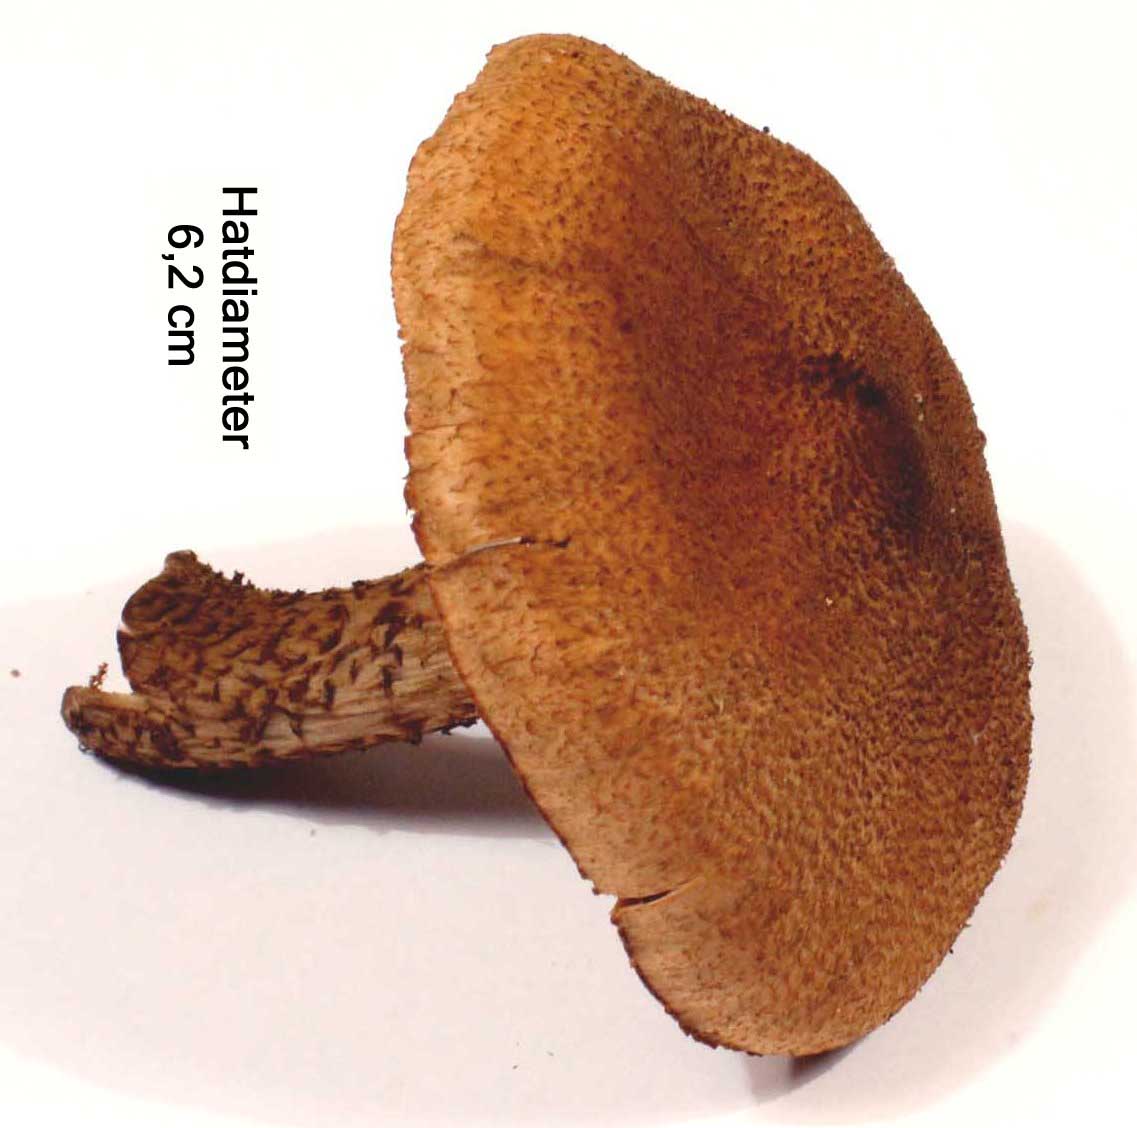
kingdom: Fungi
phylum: Basidiomycota
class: Agaricomycetes
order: Agaricales
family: Cortinariaceae
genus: Cortinarius
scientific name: Cortinarius pholideus
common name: brunskællet slørhat
